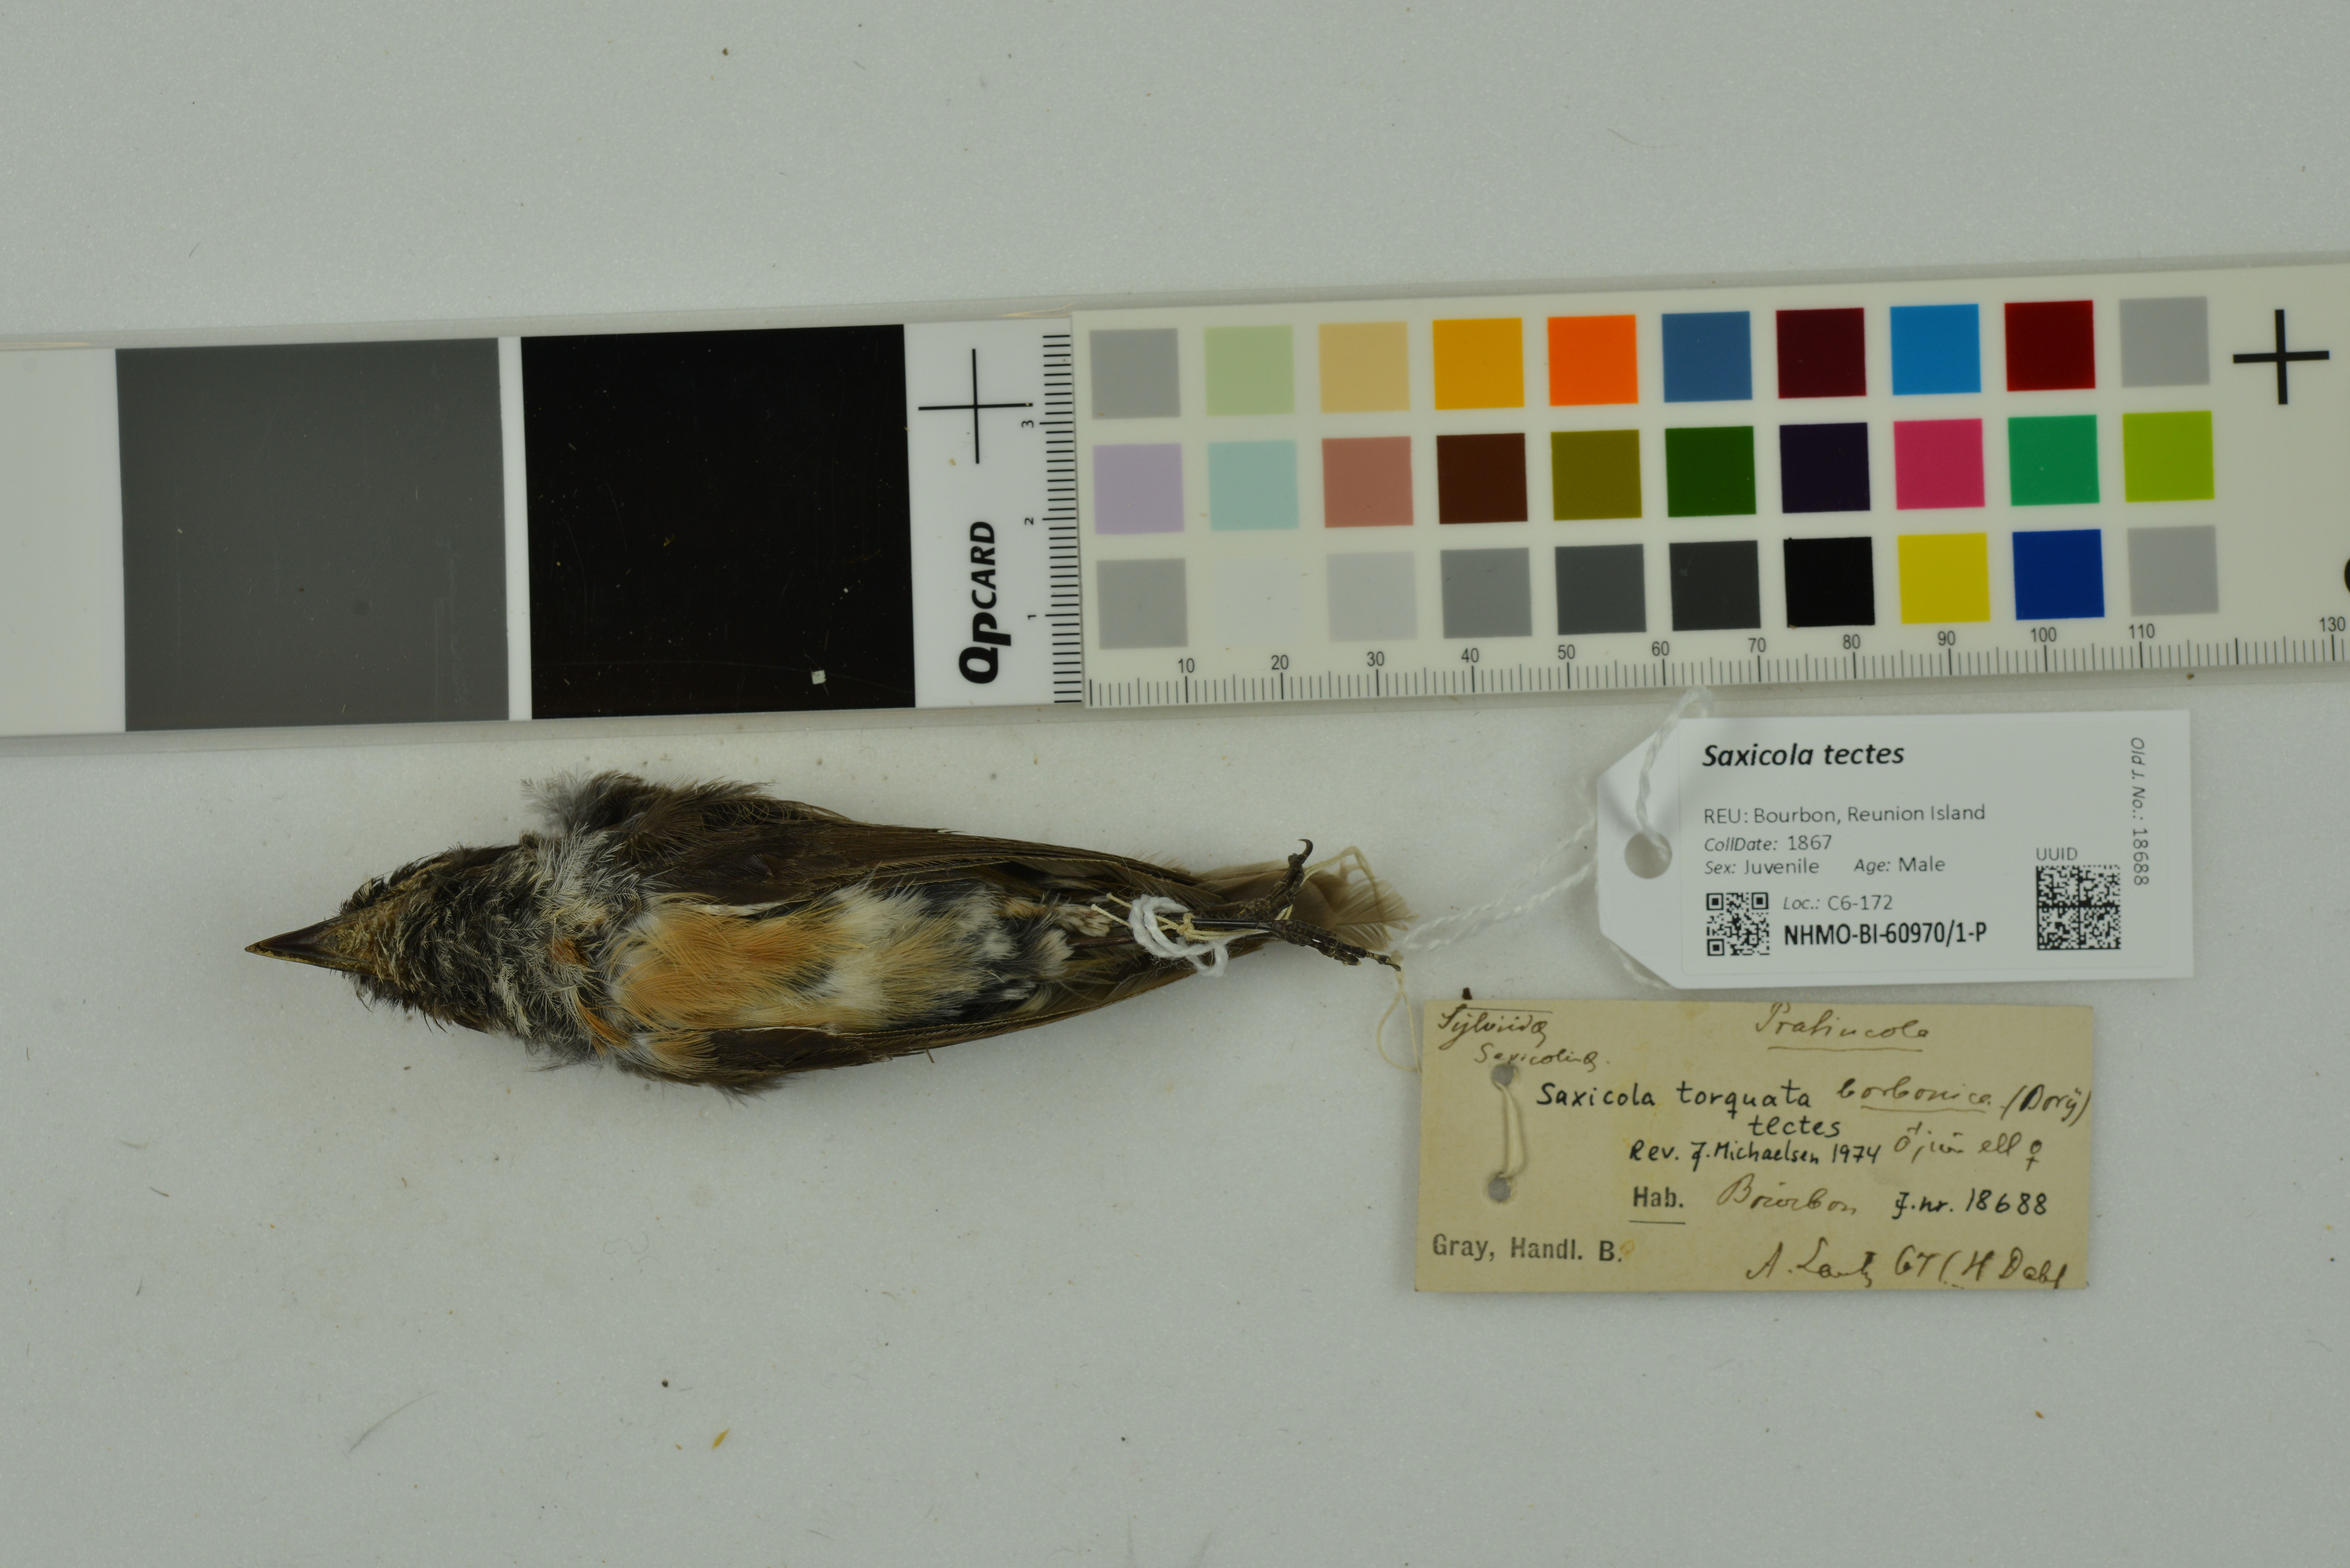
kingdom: Animalia
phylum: Chordata
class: Aves
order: Passeriformes
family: Muscicapidae
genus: Saxicola
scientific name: Saxicola tectes
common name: Reunion stonechat
